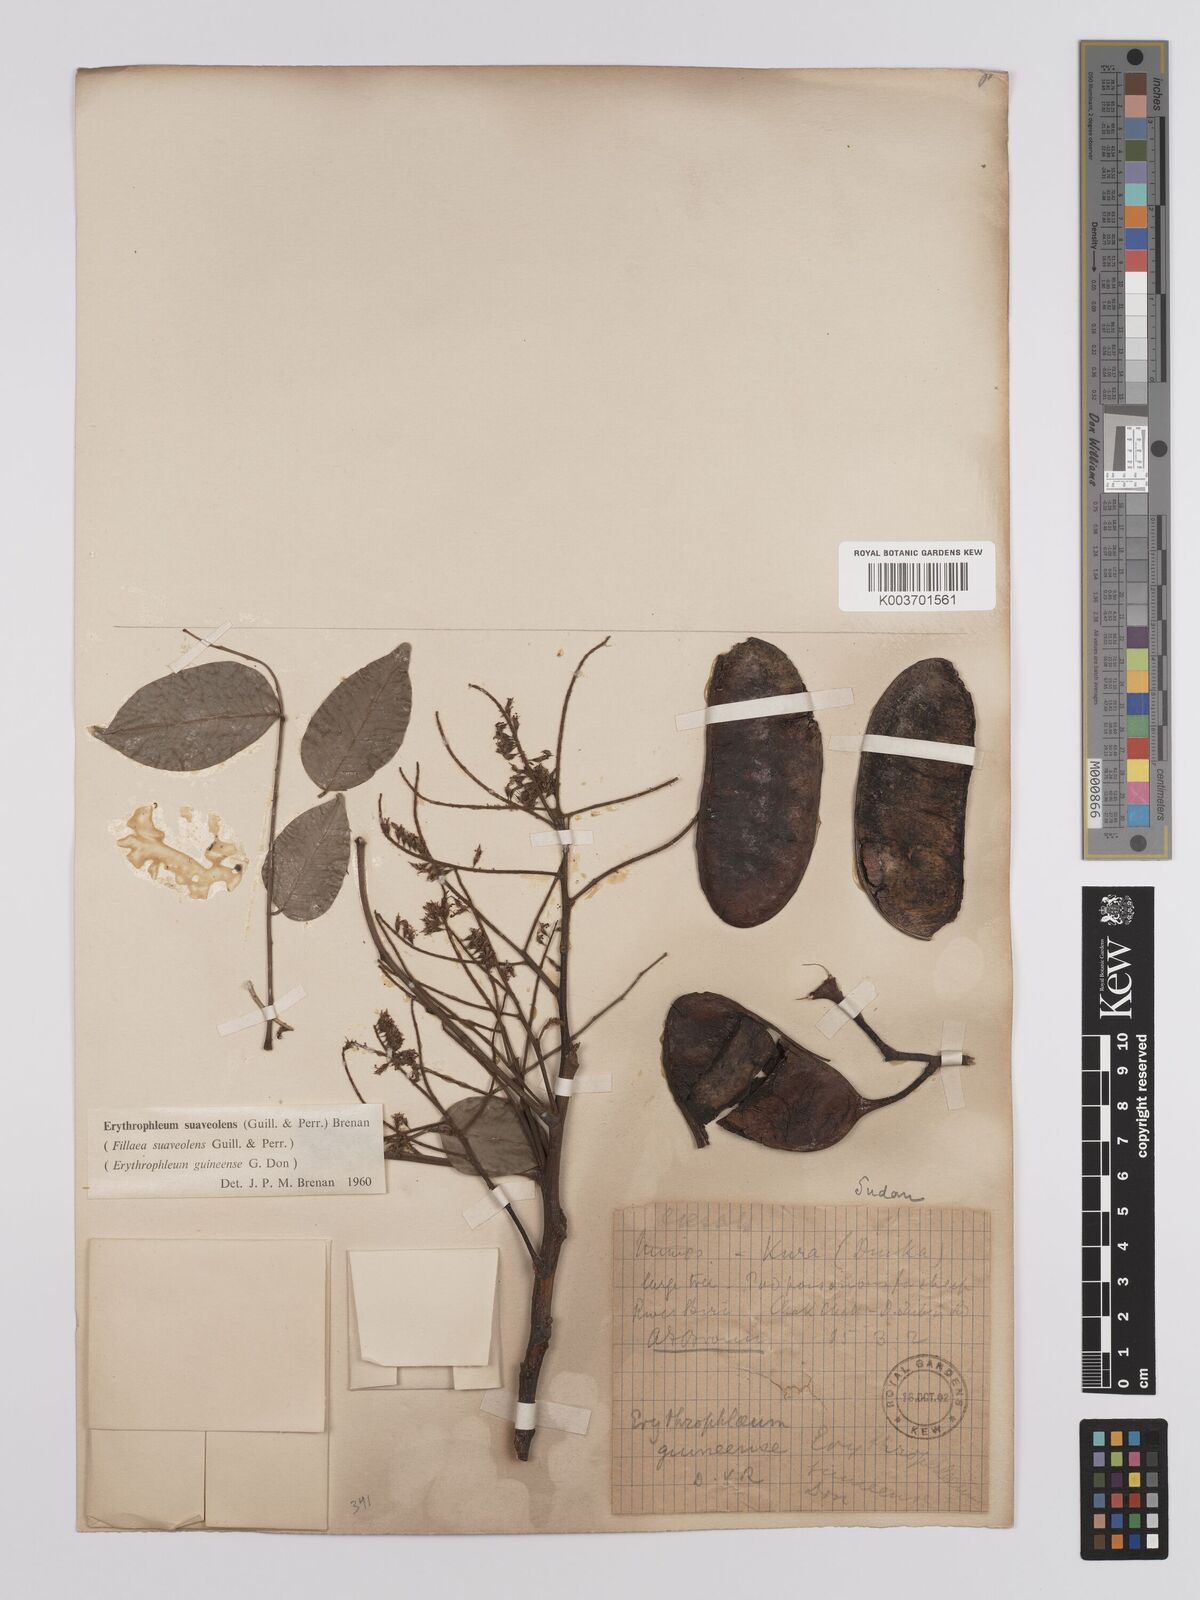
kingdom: Plantae
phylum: Tracheophyta
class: Magnoliopsida
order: Fabales
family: Fabaceae
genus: Erythrophleum
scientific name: Erythrophleum suaveolens
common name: Ordeal tree
